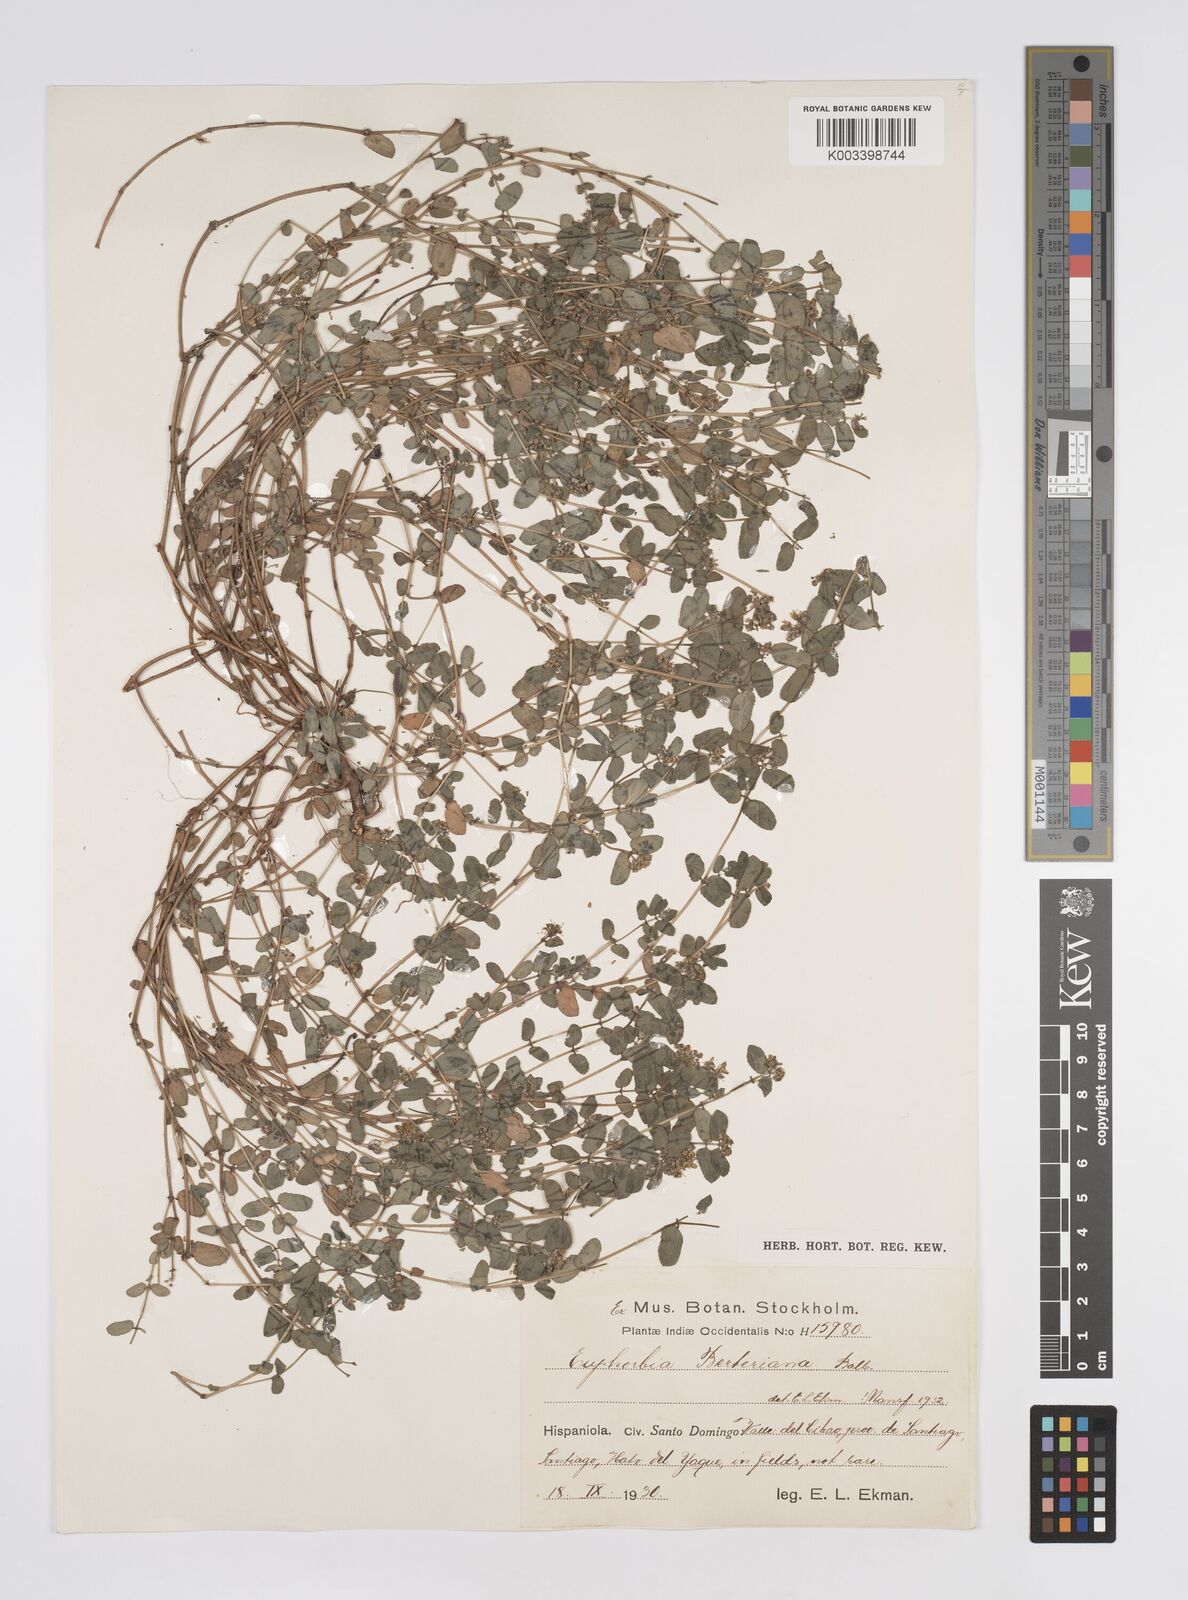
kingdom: Plantae
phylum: Tracheophyta
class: Magnoliopsida
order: Malpighiales
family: Euphorbiaceae
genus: Euphorbia
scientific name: Euphorbia berteroana
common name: Bertero's sandmat
